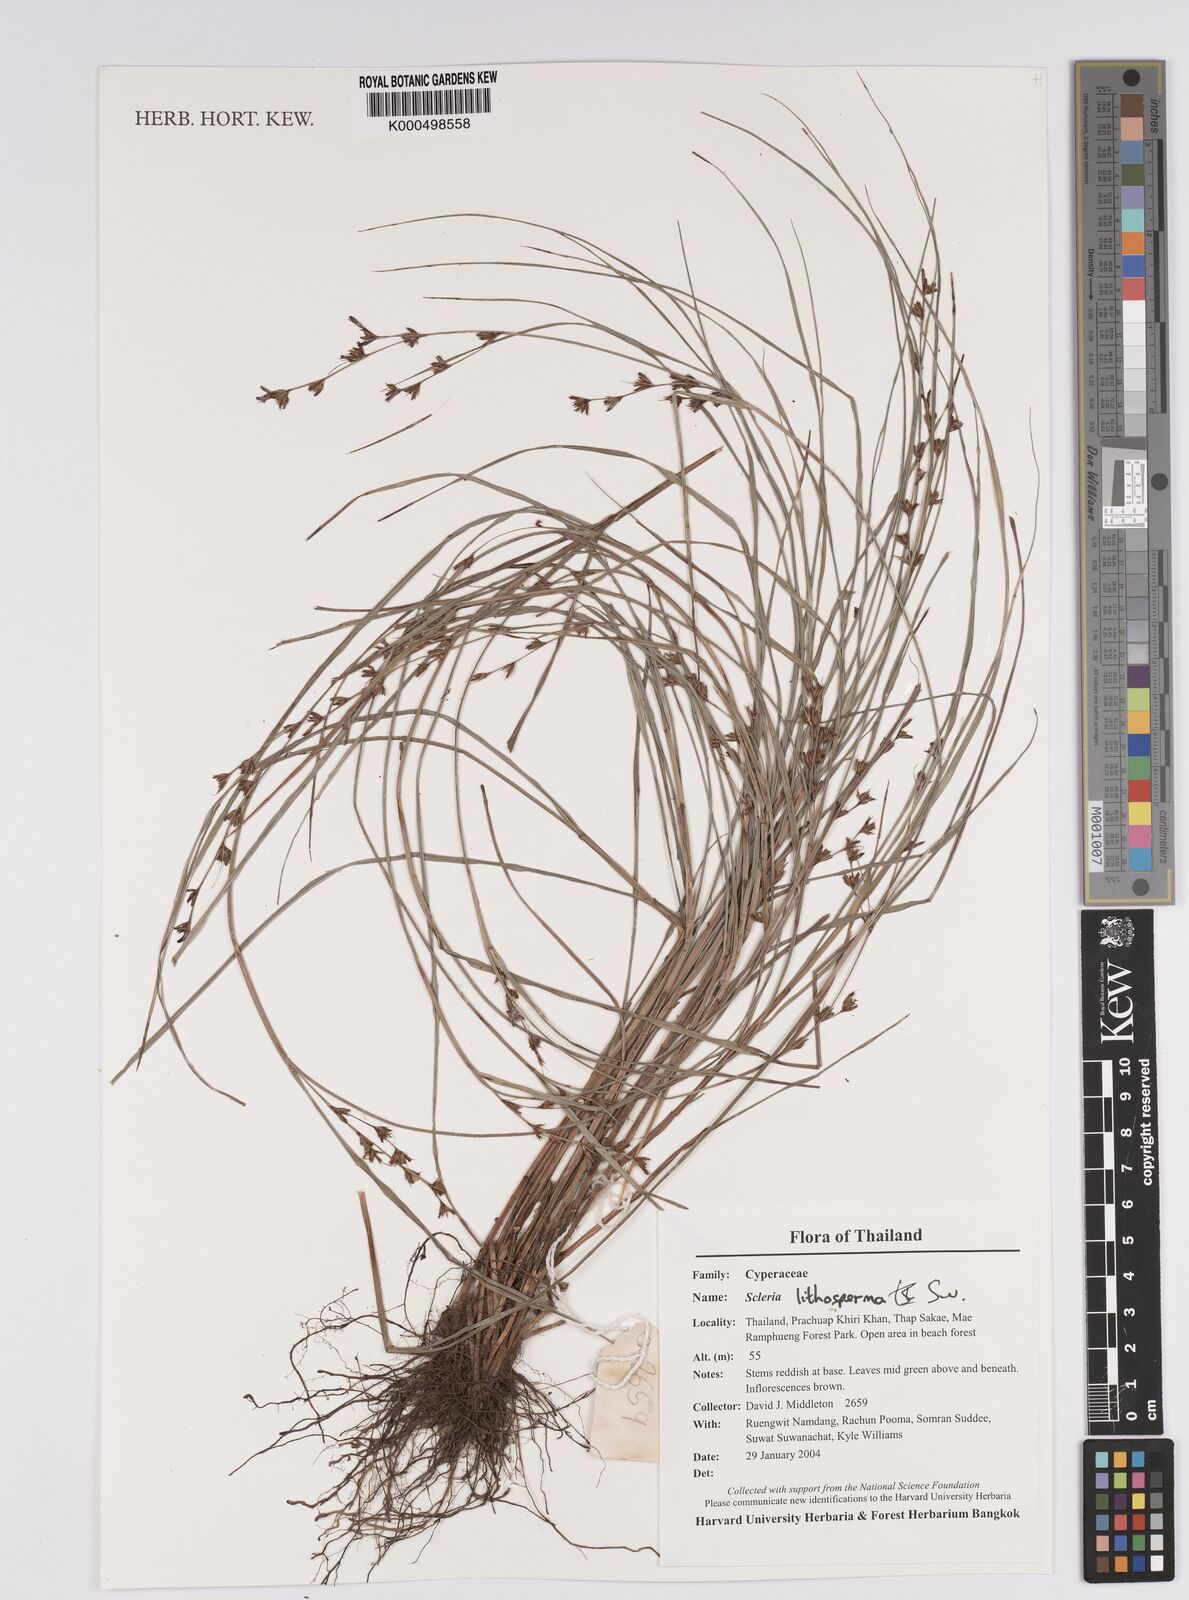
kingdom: Plantae
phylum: Tracheophyta
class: Liliopsida
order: Poales
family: Cyperaceae
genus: Scleria
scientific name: Scleria lithosperma
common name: Florida keys nut-rush
